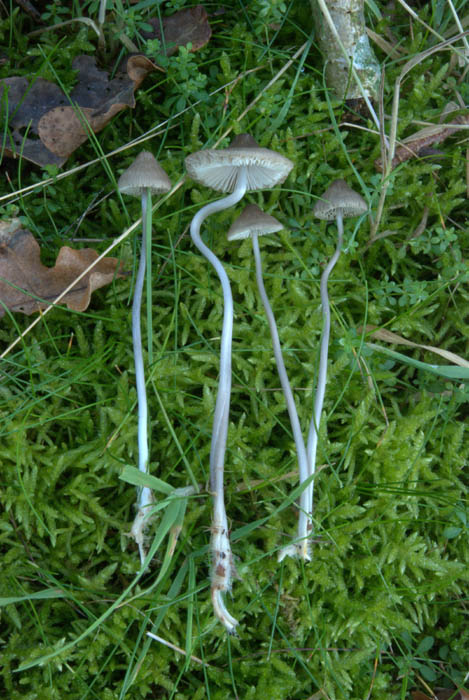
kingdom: Fungi
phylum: Basidiomycota
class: Agaricomycetes
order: Agaricales
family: Mycenaceae
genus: Mycena
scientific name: Mycena polygramma
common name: mangestribet huesvamp
